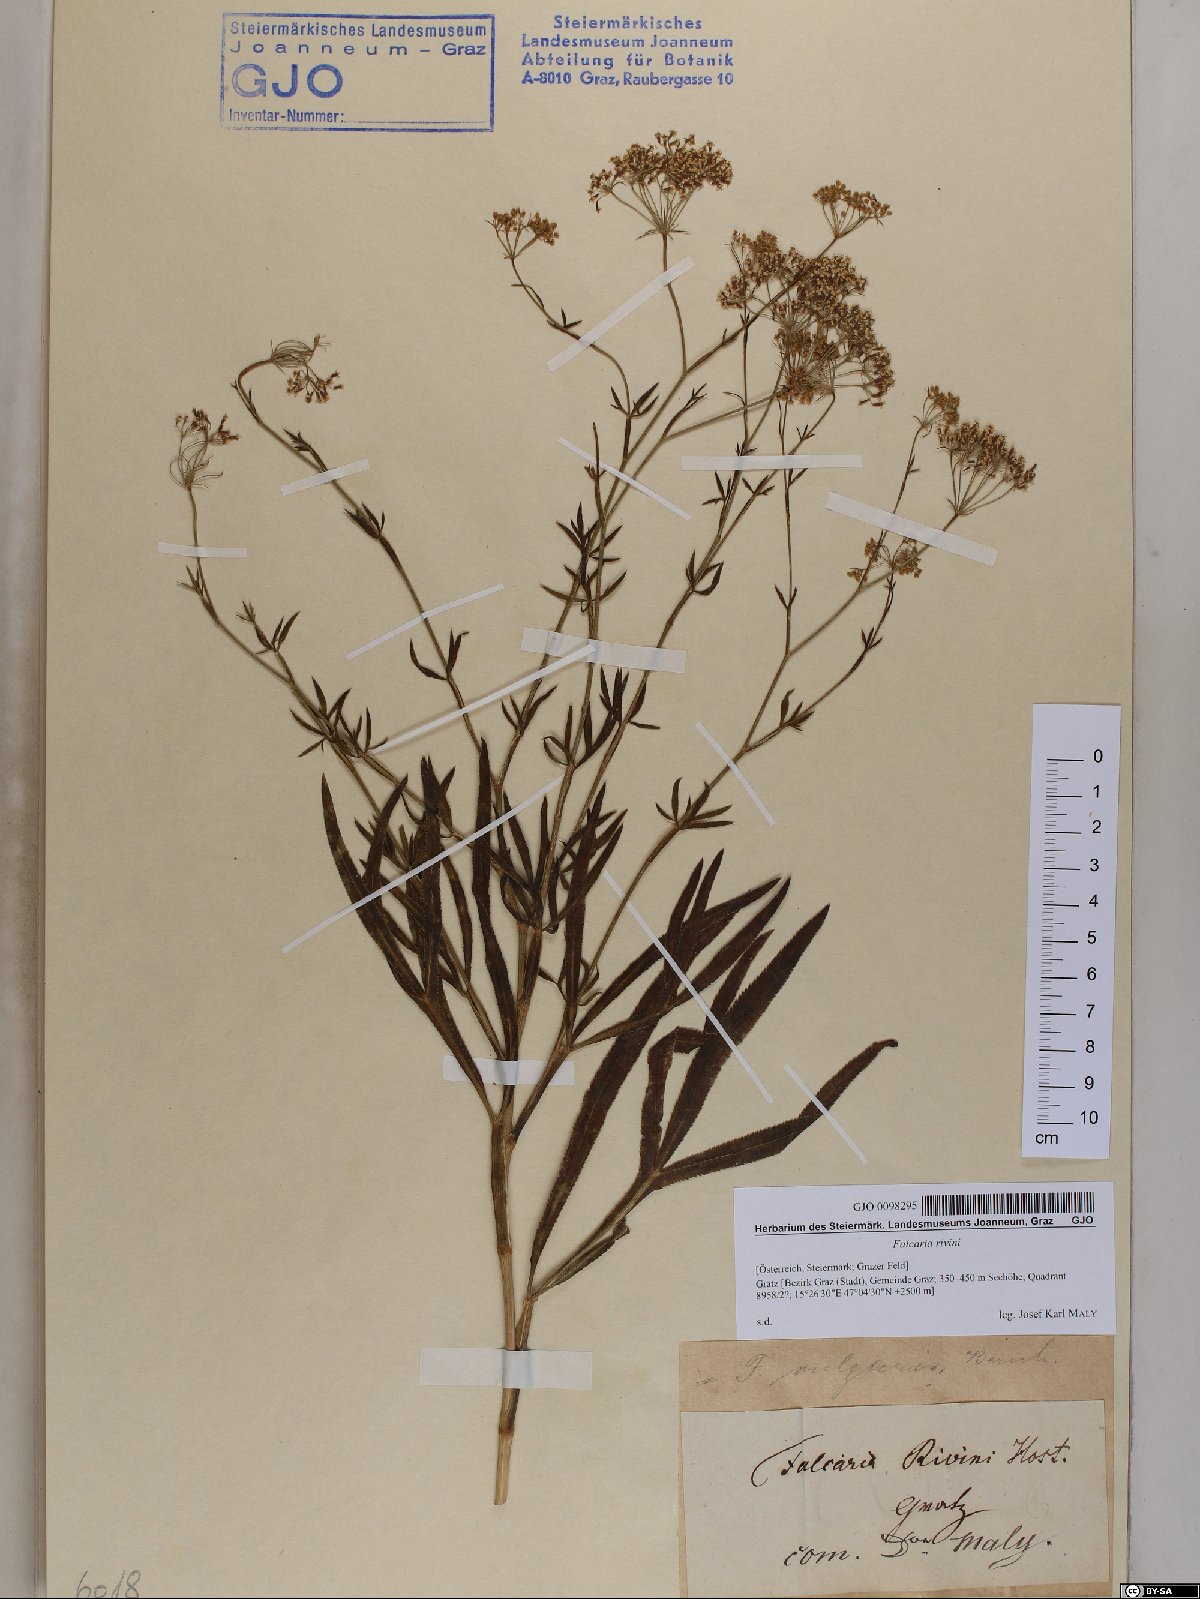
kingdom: Plantae
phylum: Tracheophyta
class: Magnoliopsida
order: Apiales
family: Apiaceae
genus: Falcaria
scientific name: Falcaria vulgaris
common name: Longleaf
